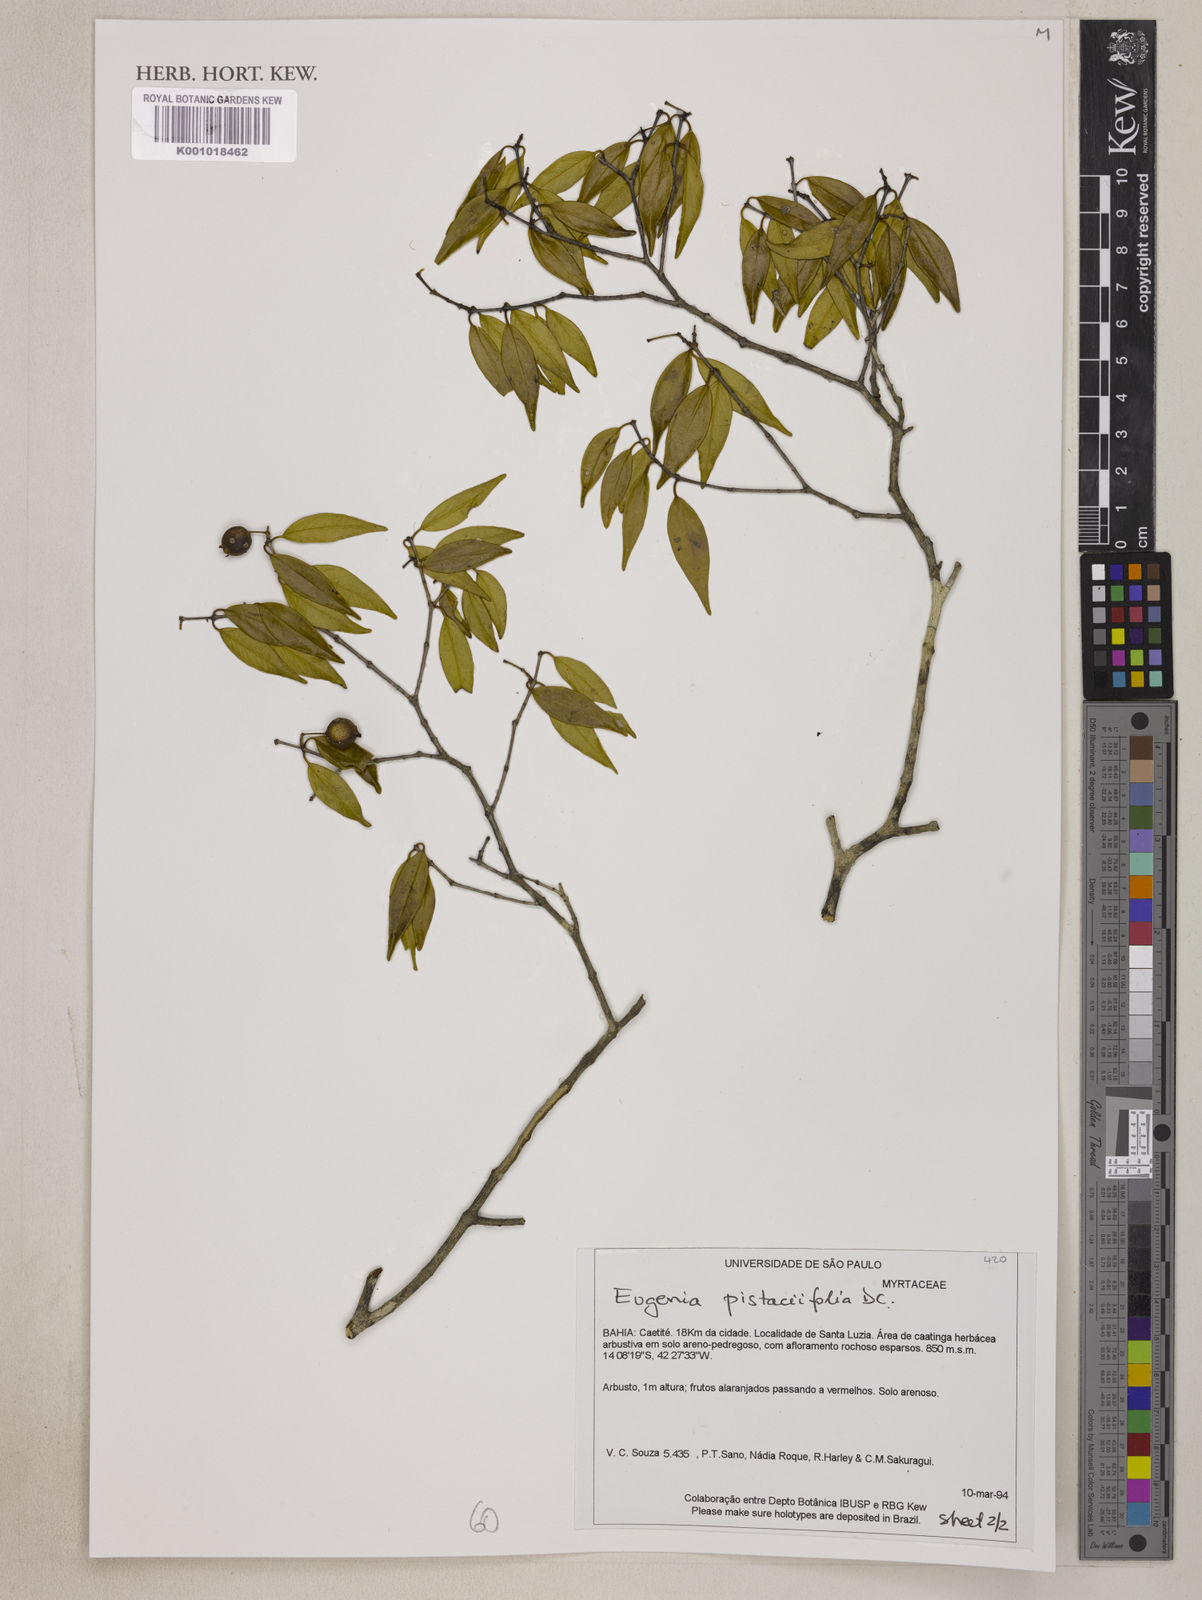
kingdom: Plantae
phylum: Tracheophyta
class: Magnoliopsida
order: Myrtales
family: Myrtaceae
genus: Eugenia
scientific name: Eugenia pistaciifolia
